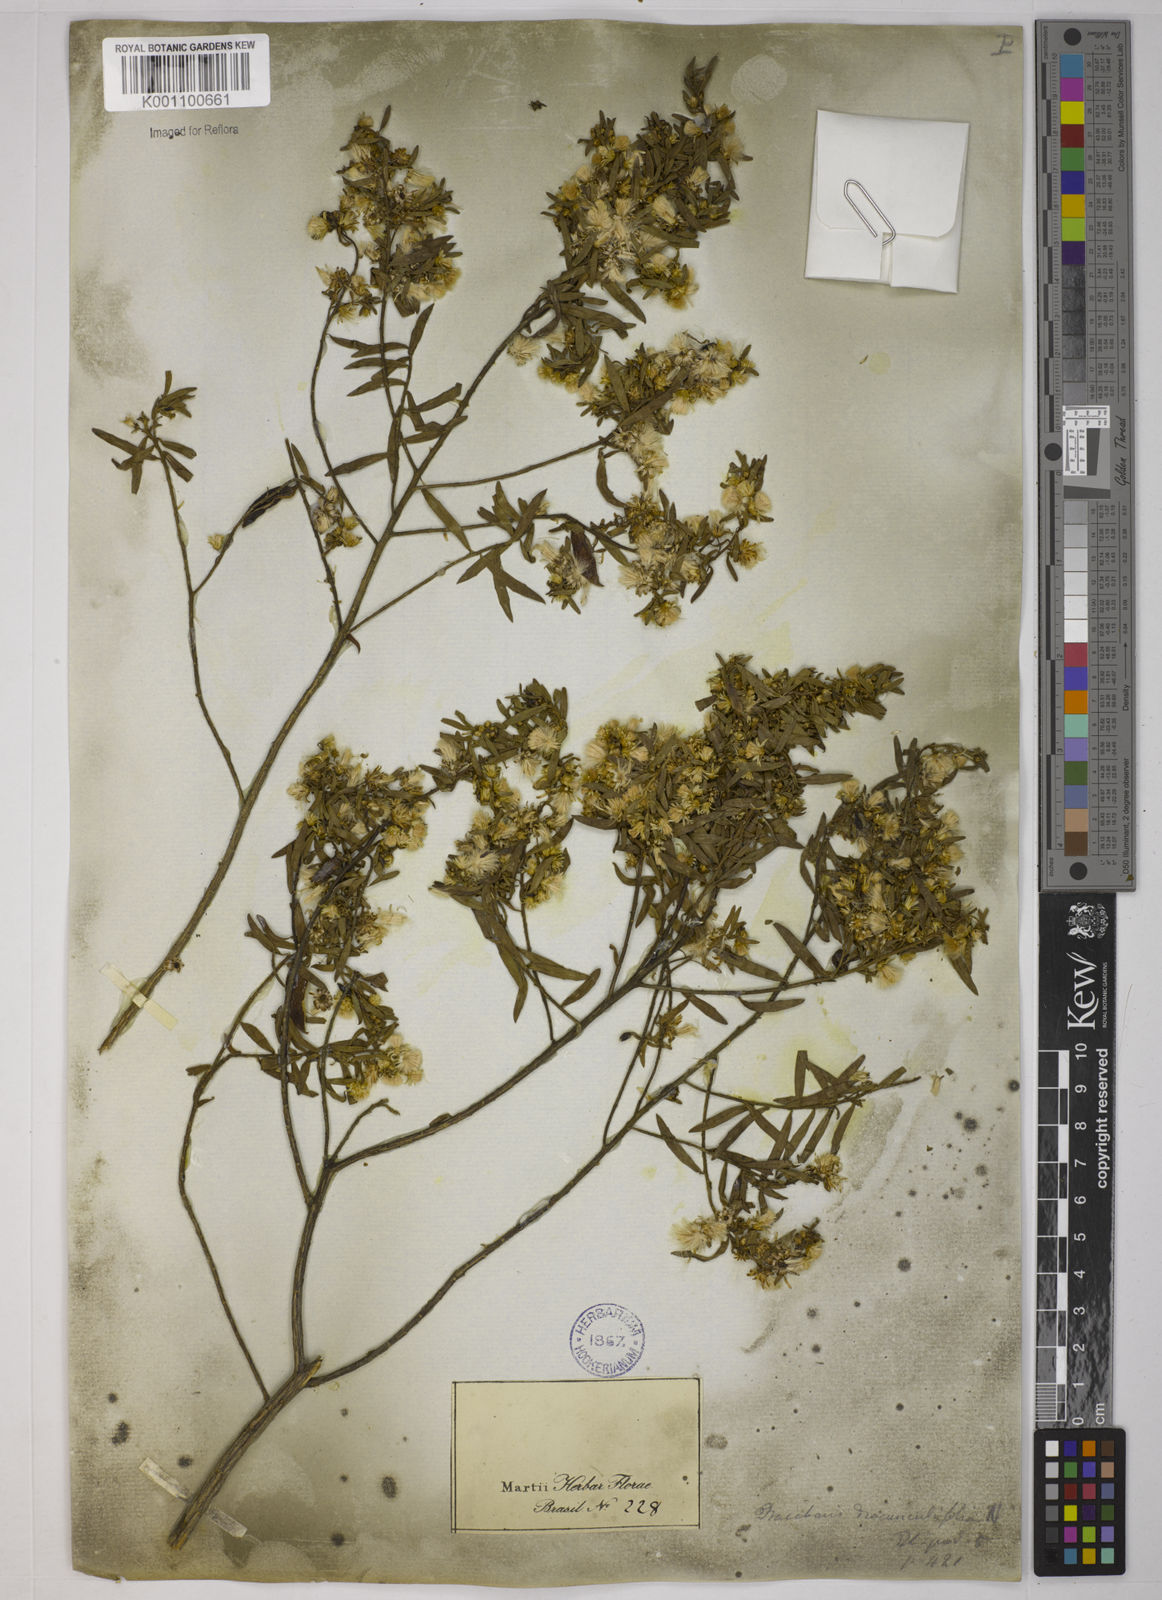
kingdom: Plantae
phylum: Tracheophyta
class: Magnoliopsida
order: Asterales
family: Asteraceae
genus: Baccharis
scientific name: Baccharis dracunculifolia
